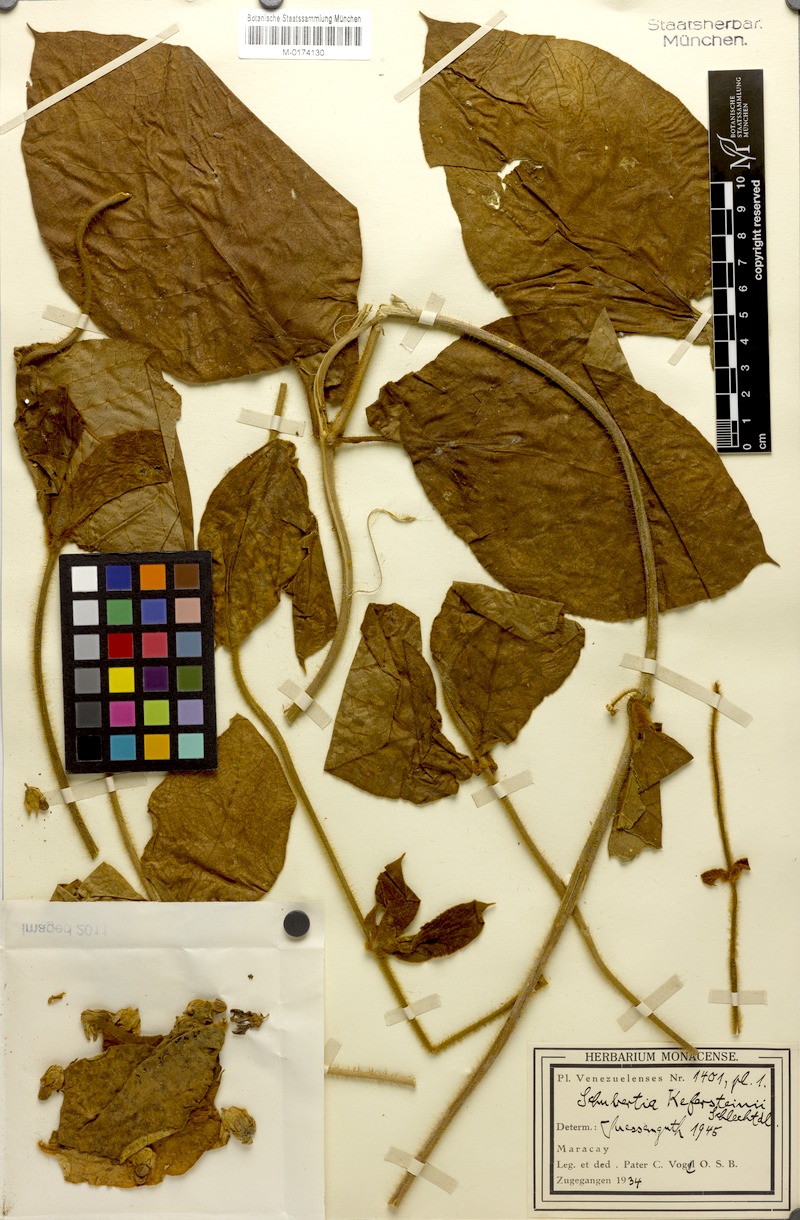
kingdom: Plantae
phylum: Tracheophyta
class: Magnoliopsida
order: Gentianales
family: Apocynaceae
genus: Schubertia
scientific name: Schubertia kefersteinii
